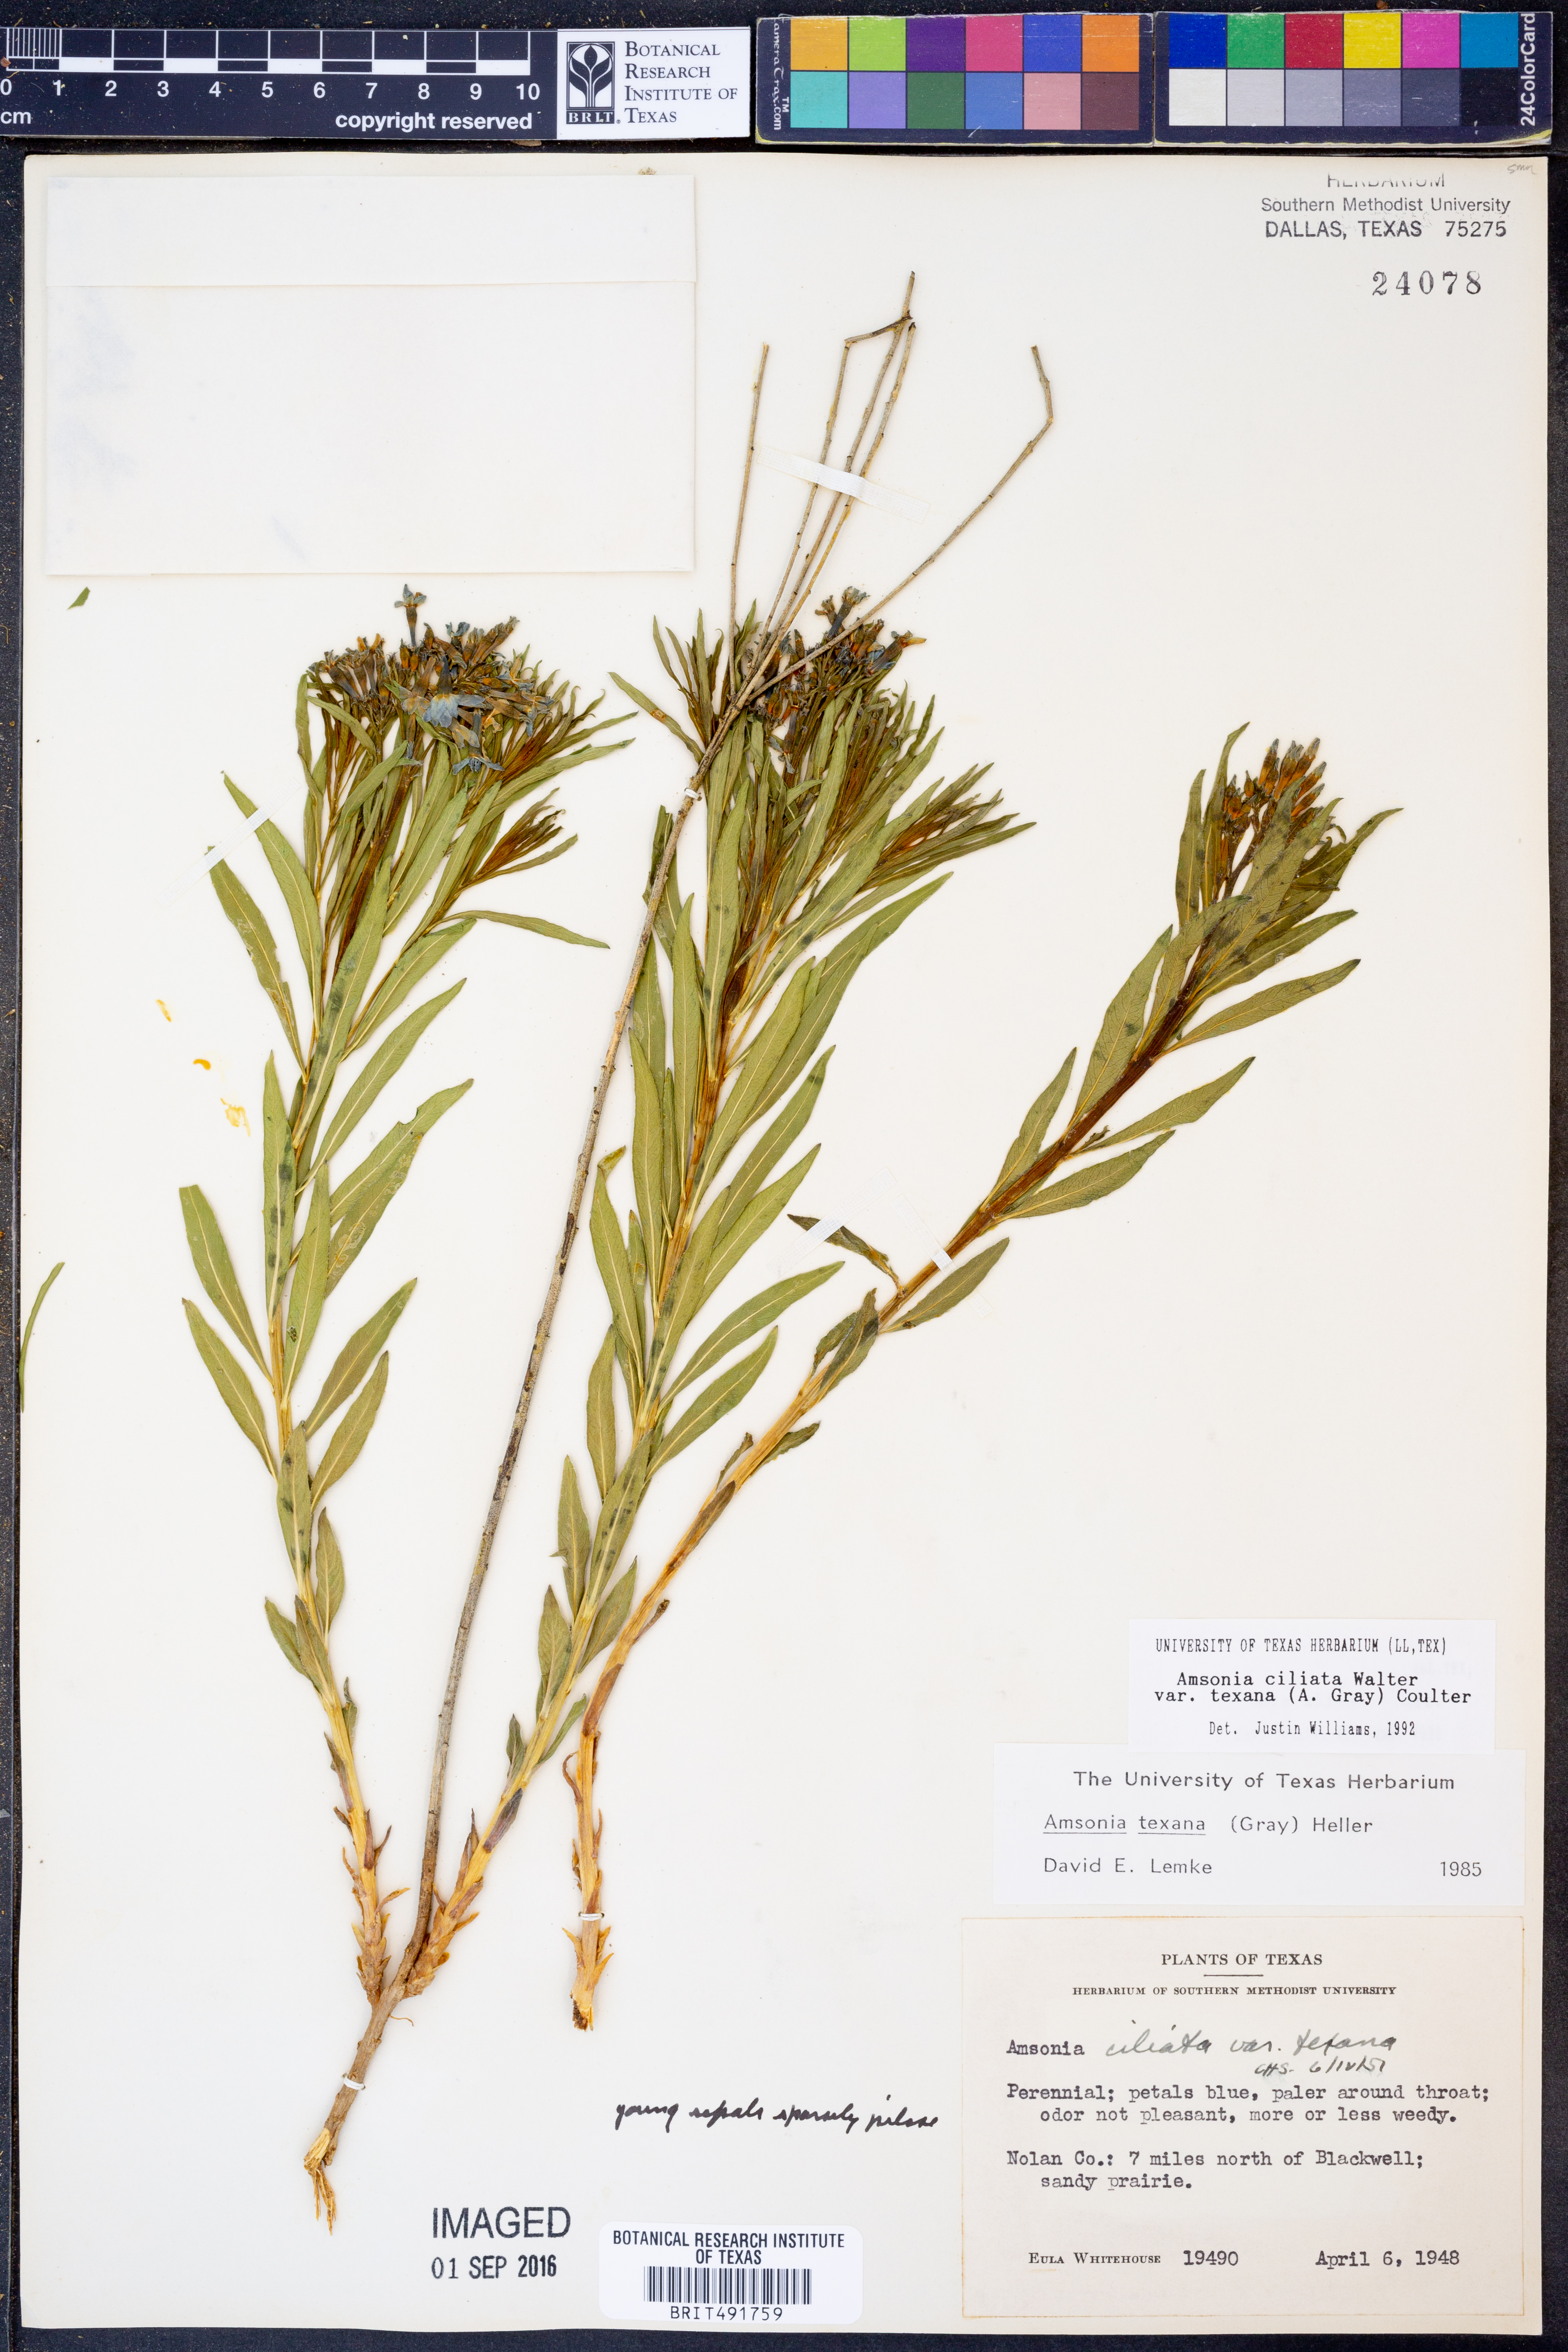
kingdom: Plantae
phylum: Tracheophyta
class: Magnoliopsida
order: Gentianales
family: Apocynaceae
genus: Amsonia
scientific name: Amsonia ciliata
